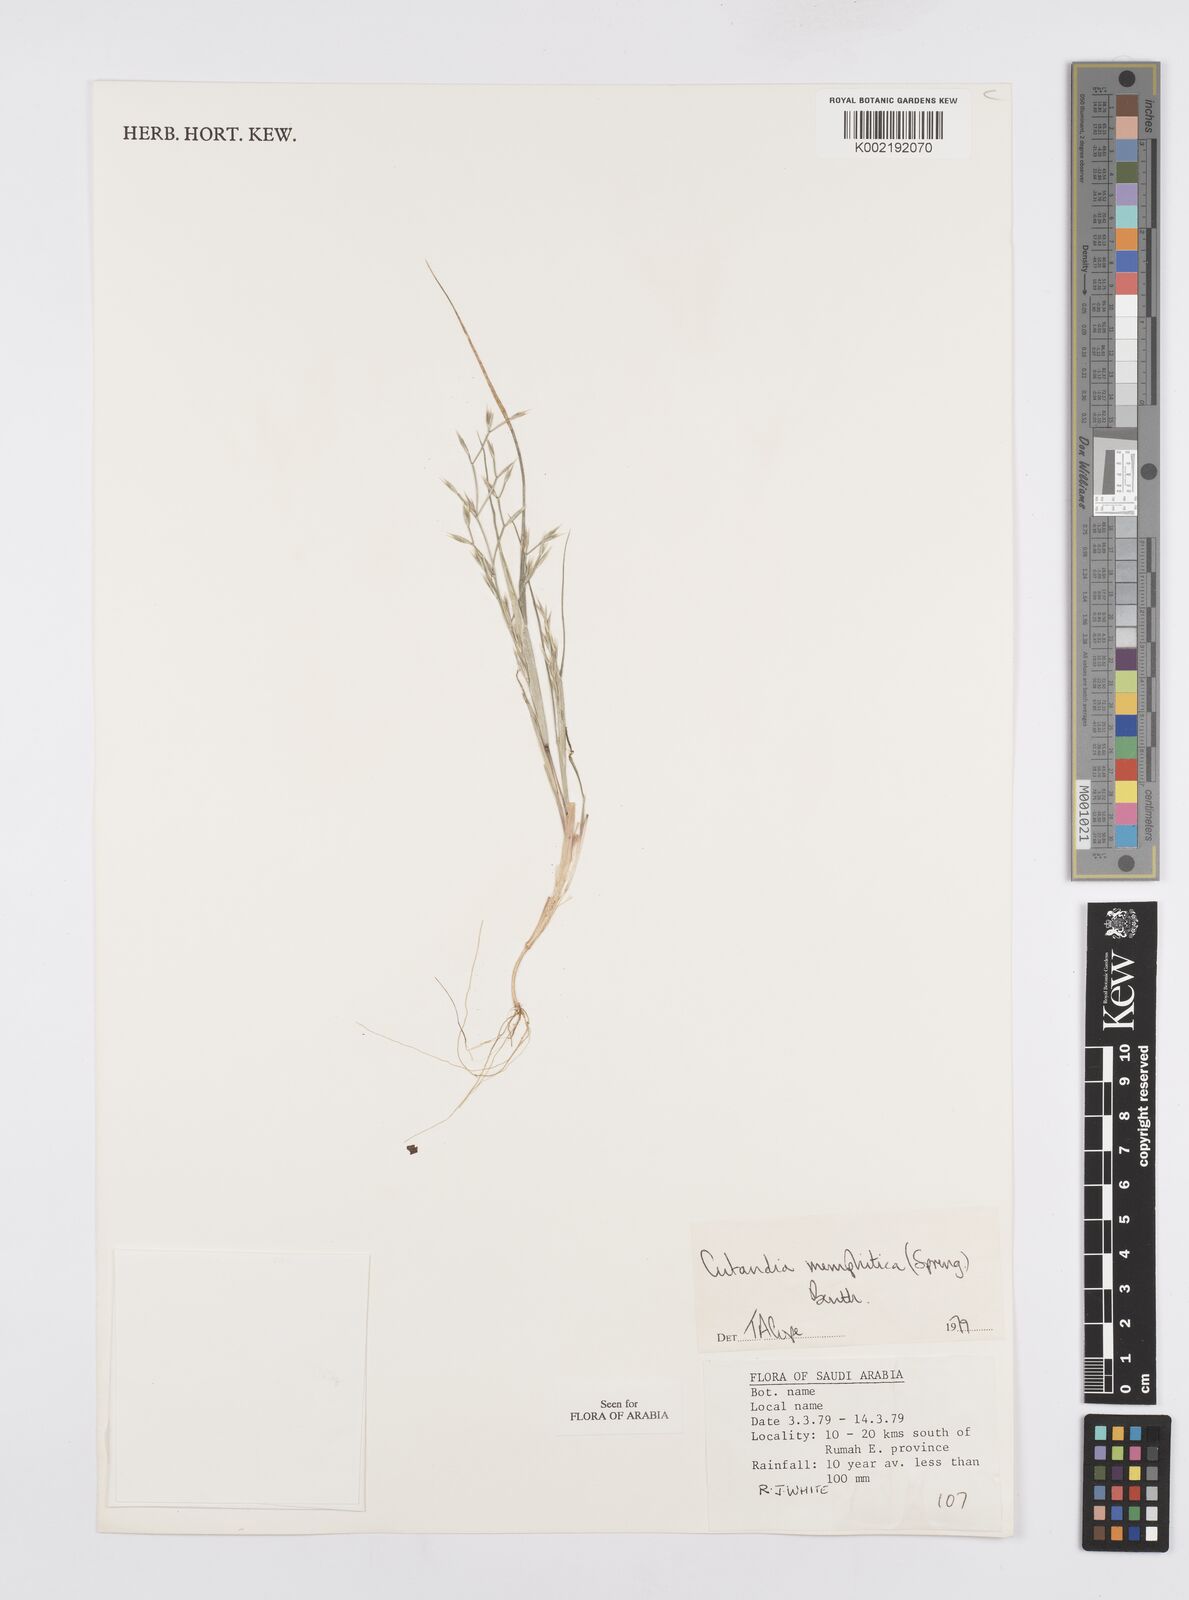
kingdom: Plantae
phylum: Tracheophyta
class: Liliopsida
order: Poales
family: Poaceae
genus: Cutandia
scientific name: Cutandia memphitica
